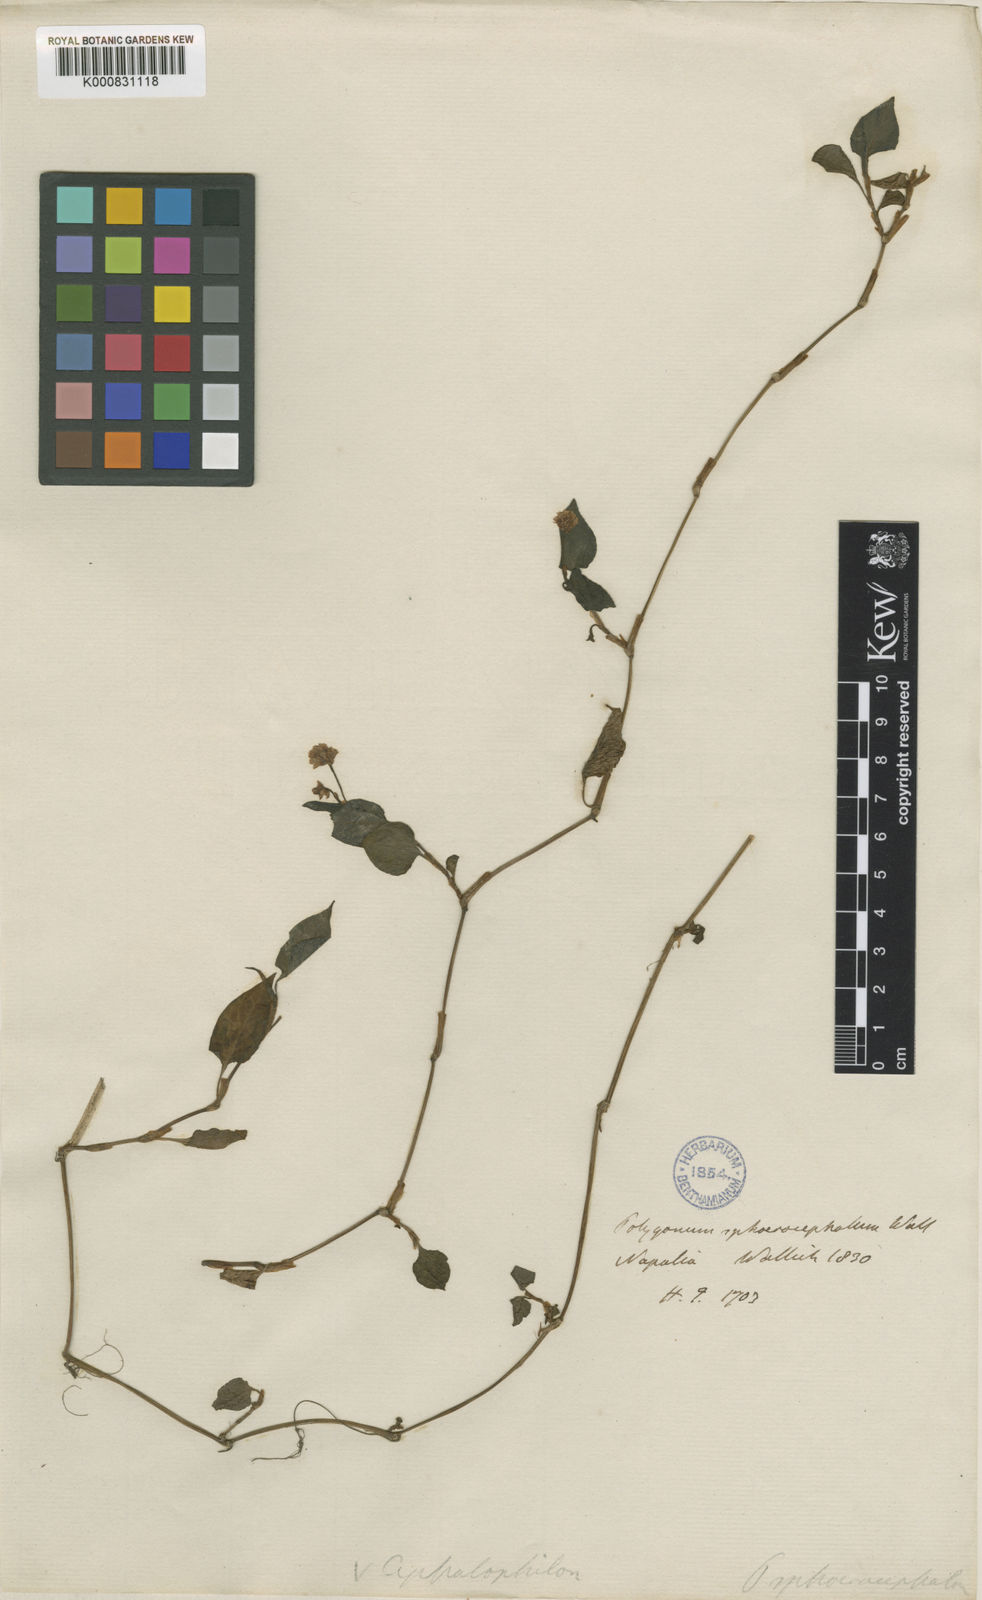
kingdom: Plantae
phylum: Tracheophyta
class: Magnoliopsida
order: Caryophyllales
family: Polygonaceae
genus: Persicaria
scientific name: Persicaria
